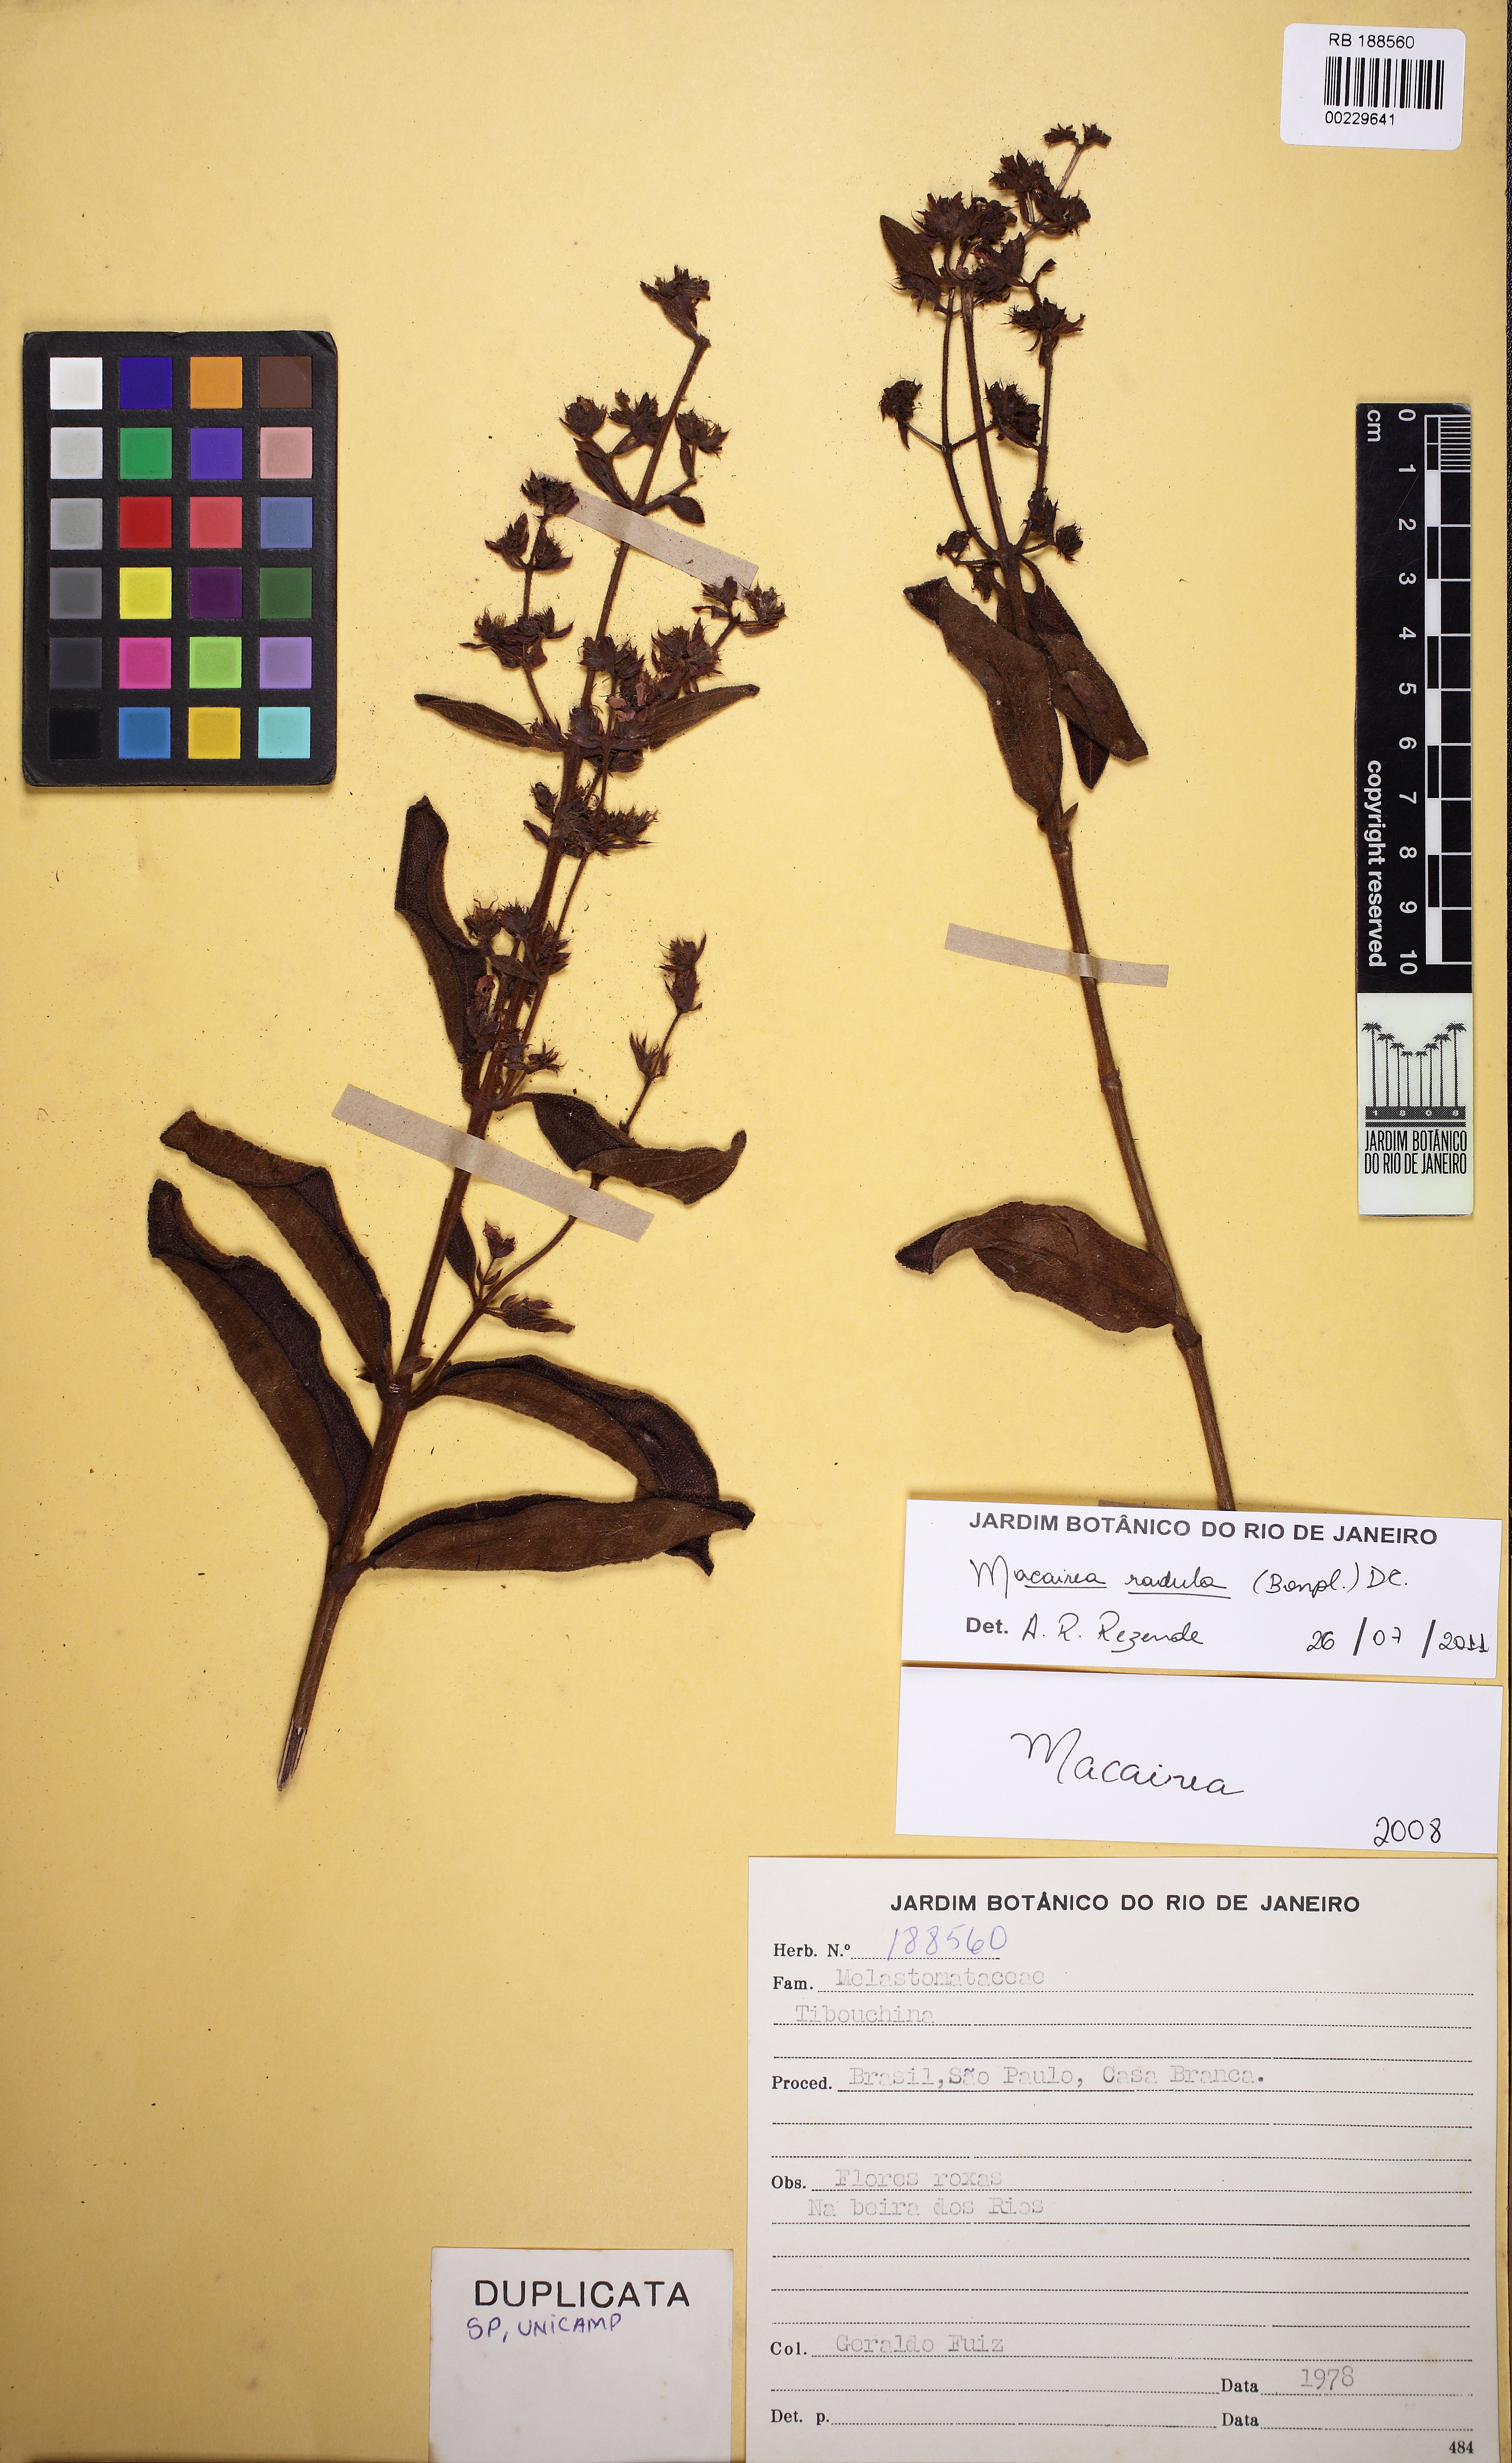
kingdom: Plantae
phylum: Tracheophyta
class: Magnoliopsida
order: Myrtales
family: Melastomataceae
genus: Macairea
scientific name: Macairea radula
